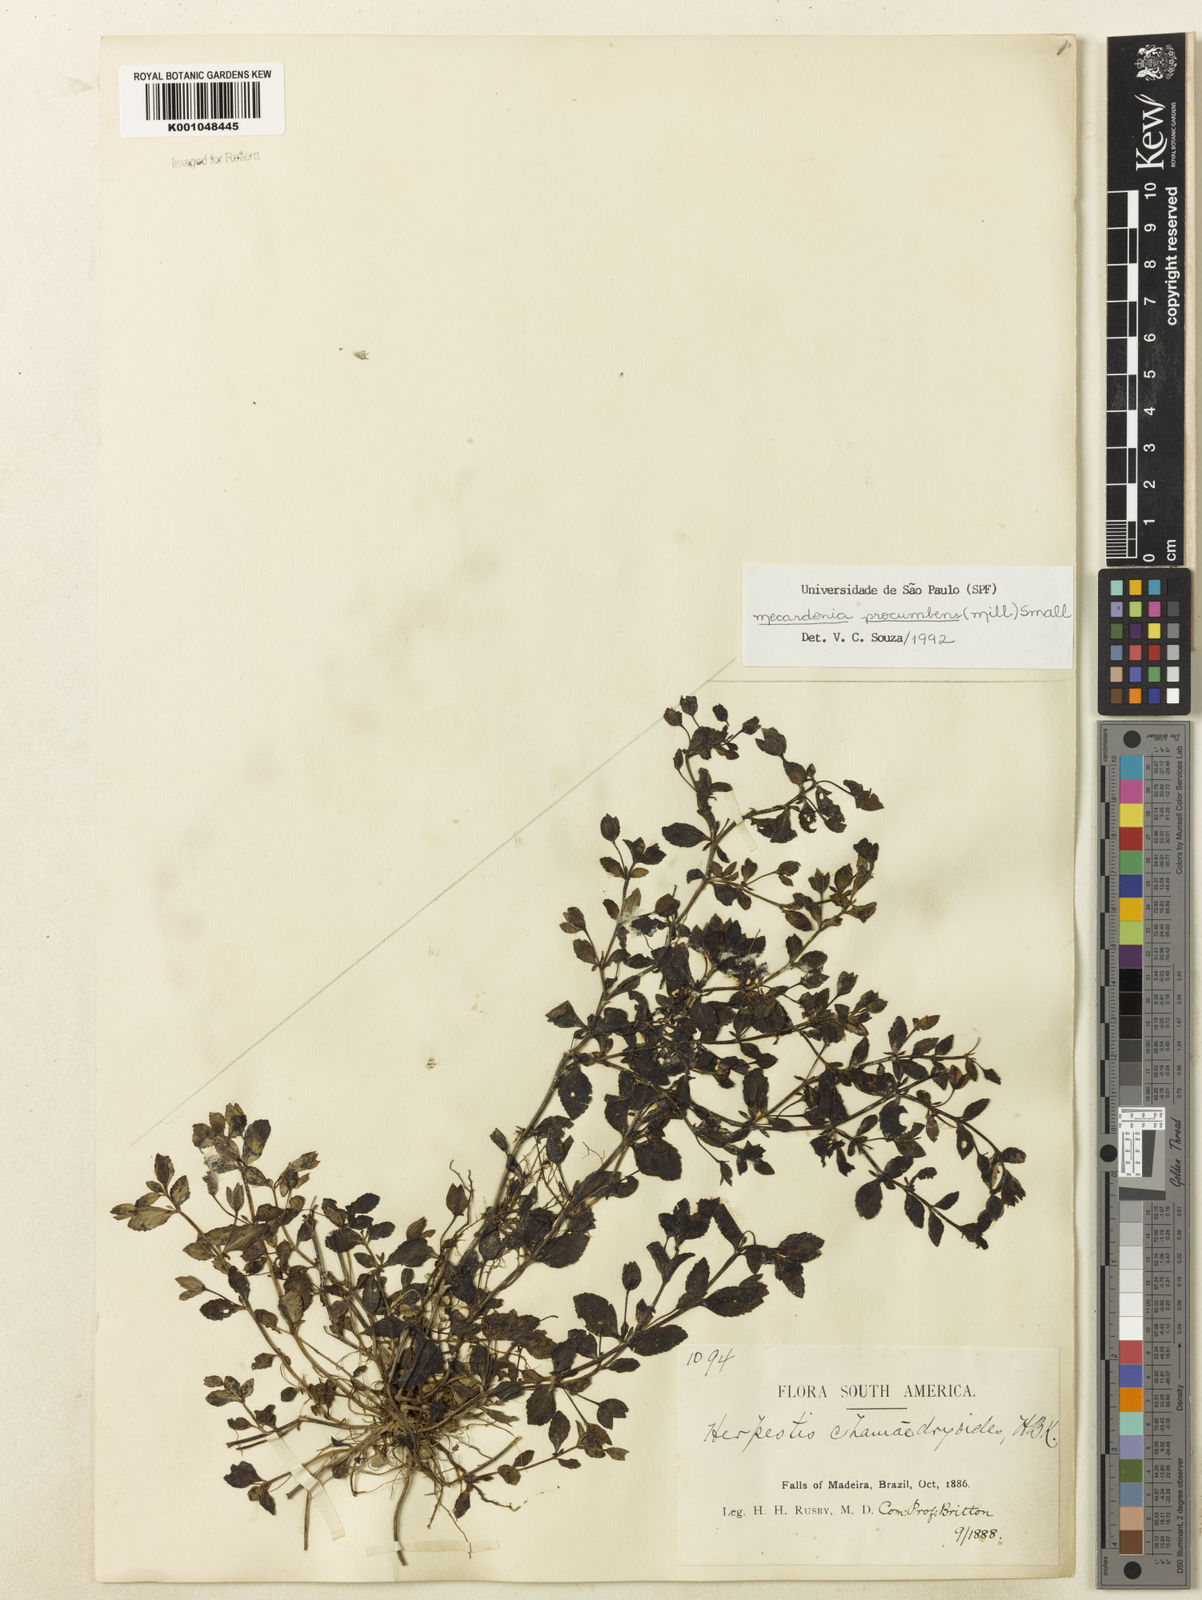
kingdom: Plantae
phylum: Tracheophyta
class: Magnoliopsida
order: Lamiales
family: Plantaginaceae
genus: Mecardonia
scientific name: Mecardonia procumbens
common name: Baby jump-up
